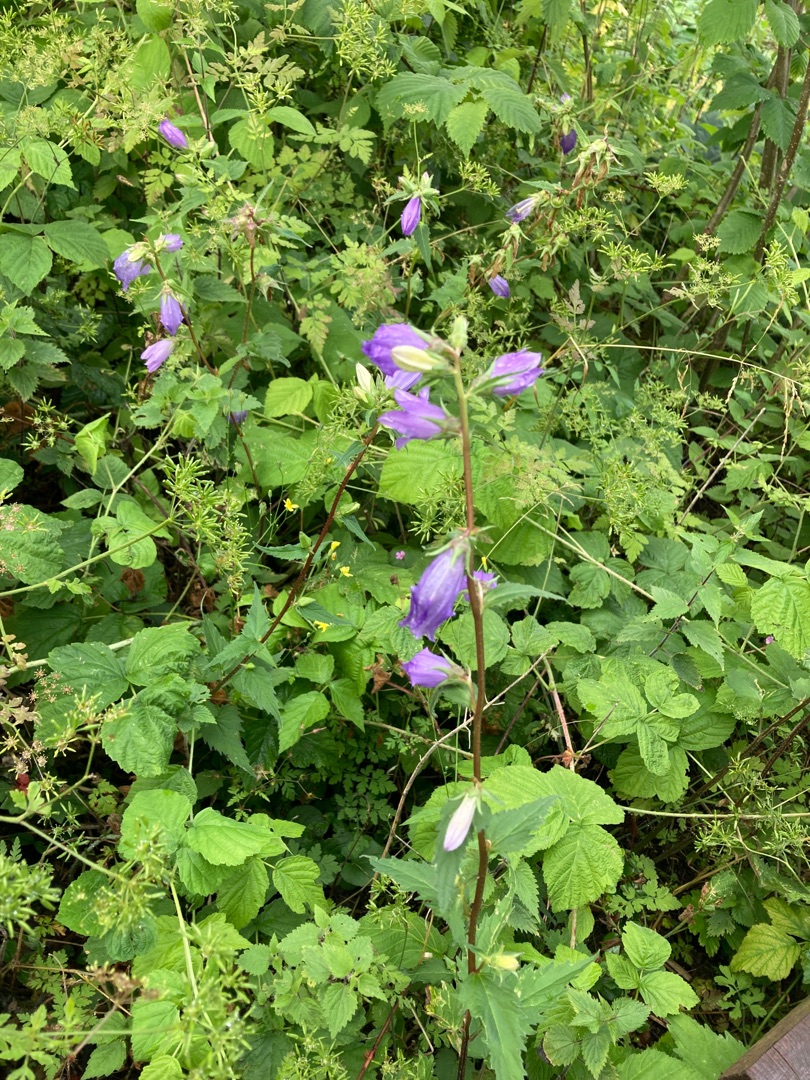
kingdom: Plantae
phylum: Tracheophyta
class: Magnoliopsida
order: Asterales
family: Campanulaceae
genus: Campanula
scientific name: Campanula trachelium
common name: Nælde-klokke
